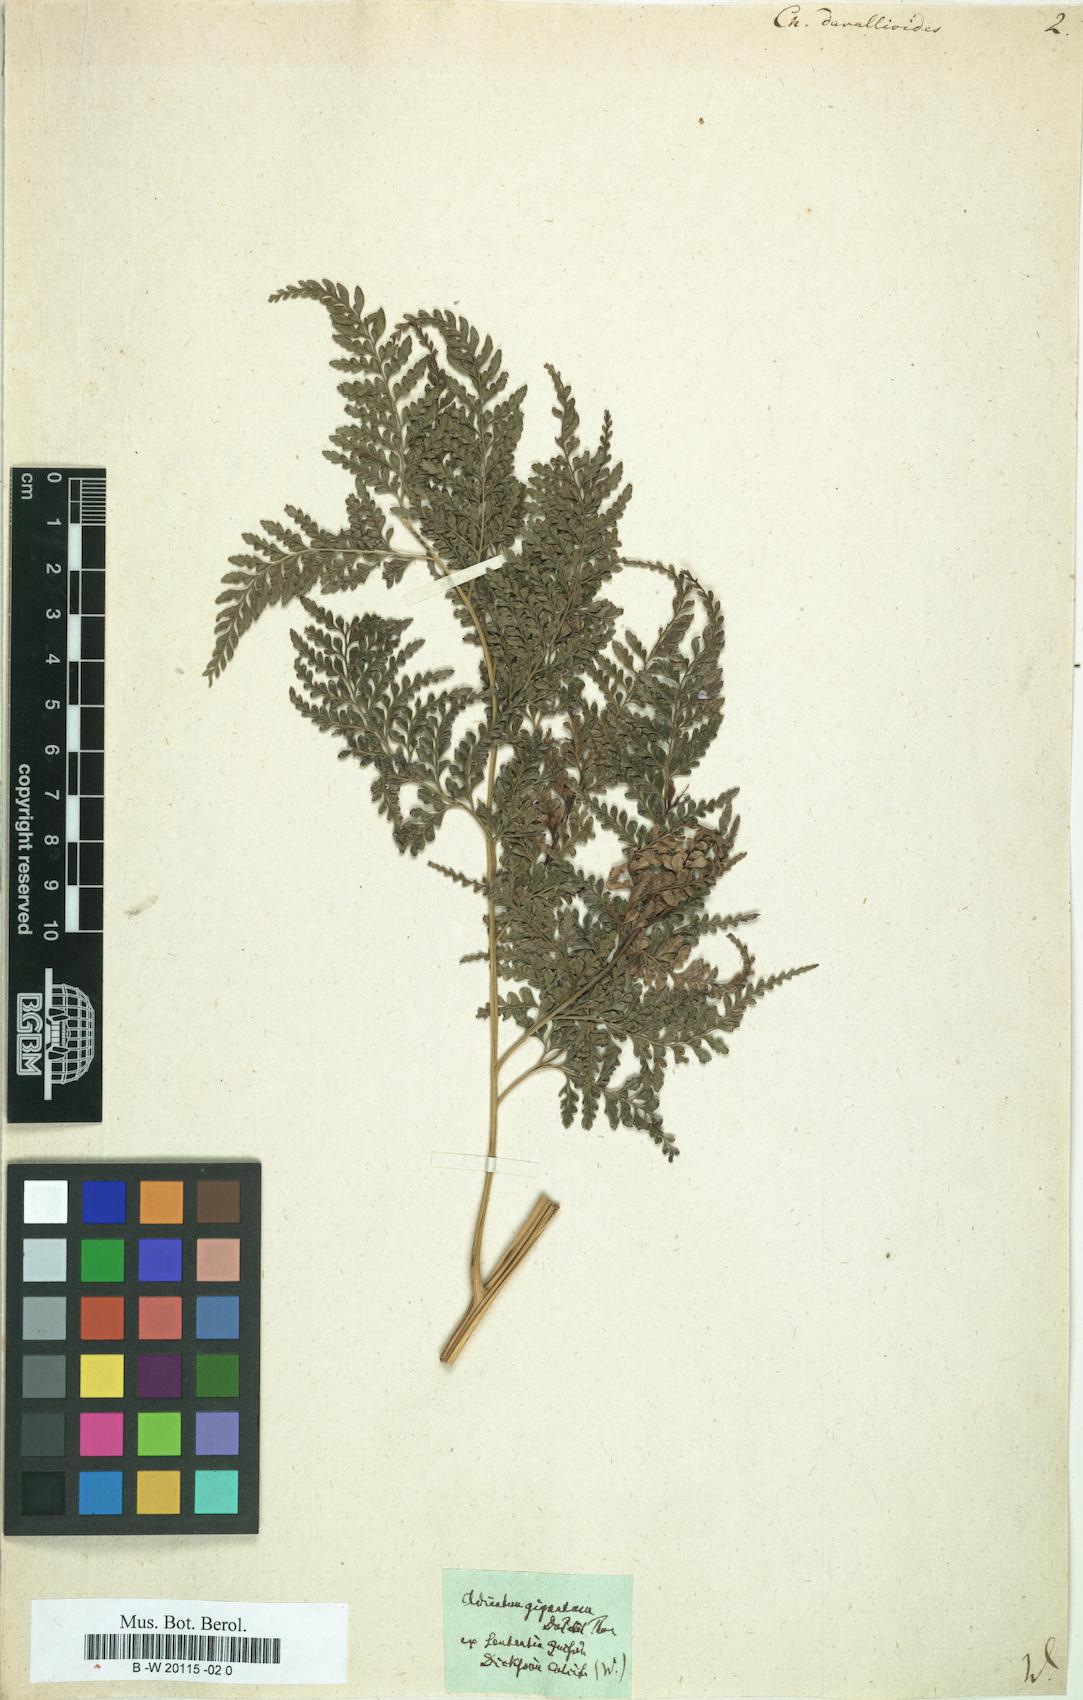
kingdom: Plantae
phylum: Tracheophyta
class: Polypodiopsida
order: Polypodiales
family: Pteridaceae
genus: Pteris
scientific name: Pteris pallens
